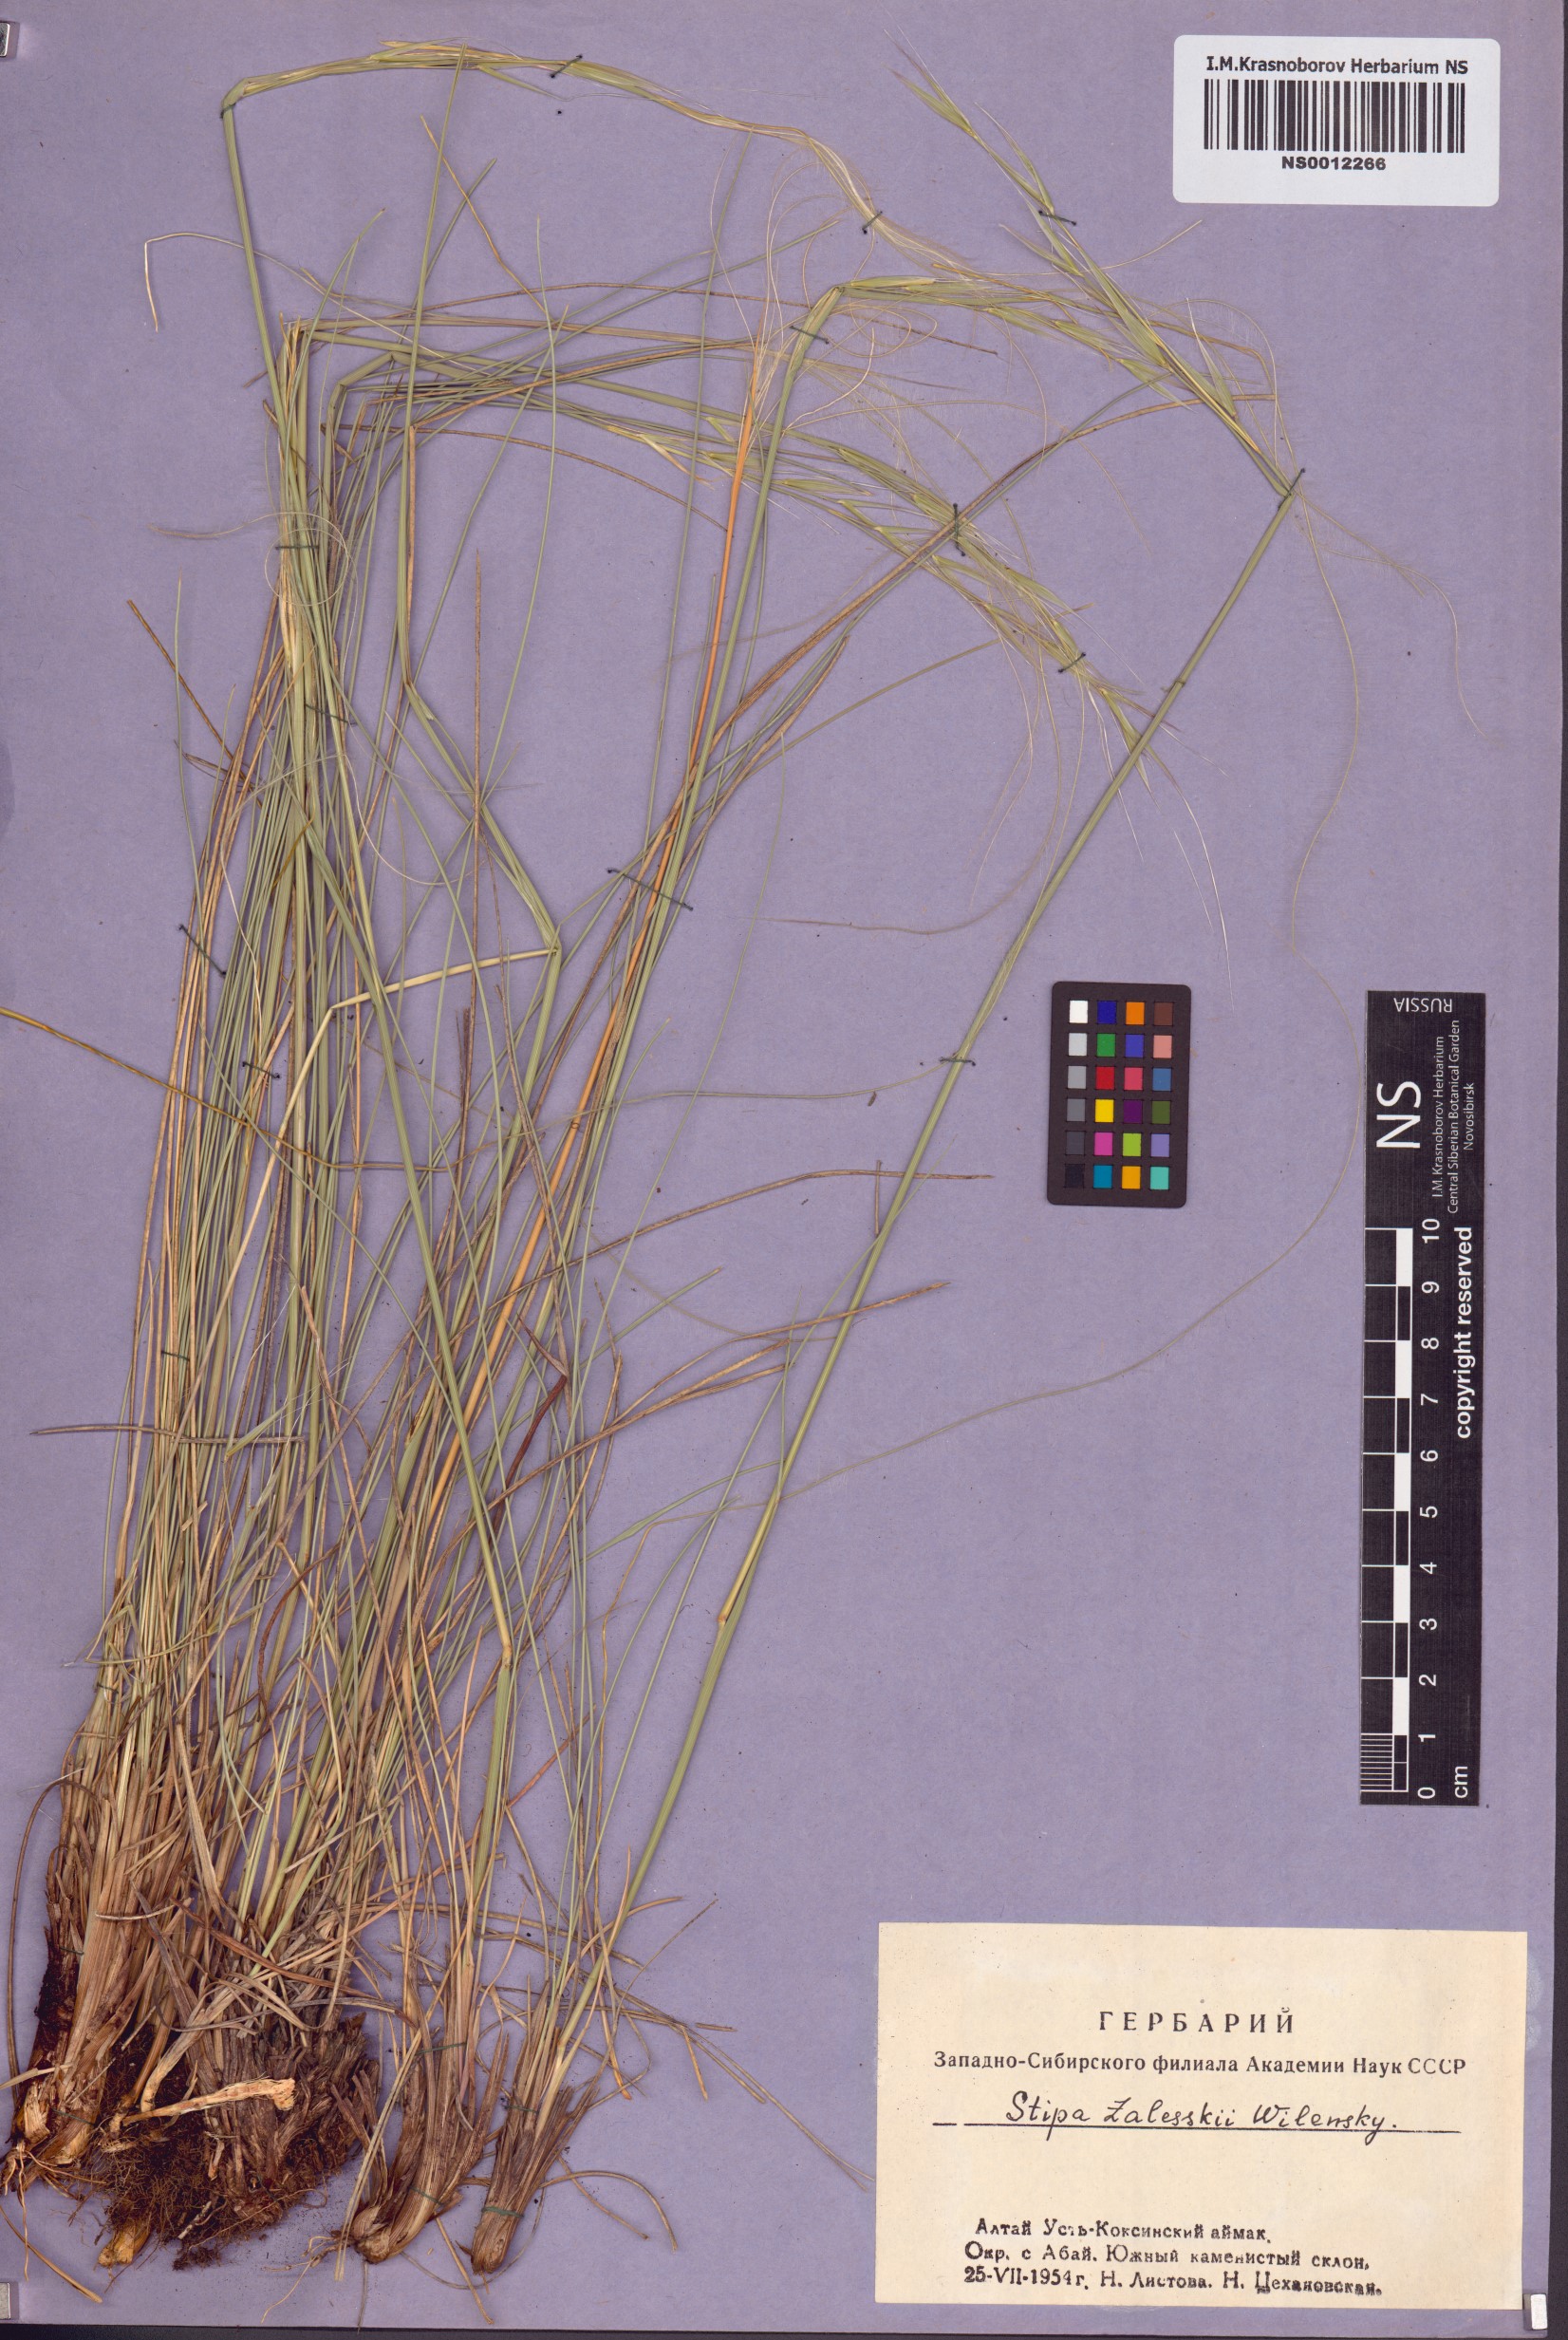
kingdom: Plantae
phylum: Tracheophyta
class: Liliopsida
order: Poales
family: Poaceae
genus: Stipa
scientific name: Stipa zalesskii
